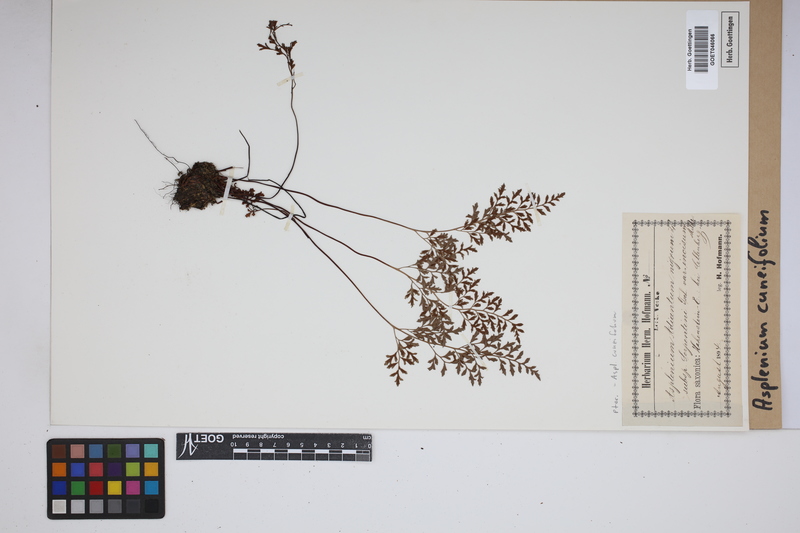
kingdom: Plantae
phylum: Tracheophyta
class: Polypodiopsida
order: Polypodiales
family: Aspleniaceae
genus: Asplenium
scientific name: Asplenium cuneifolium
